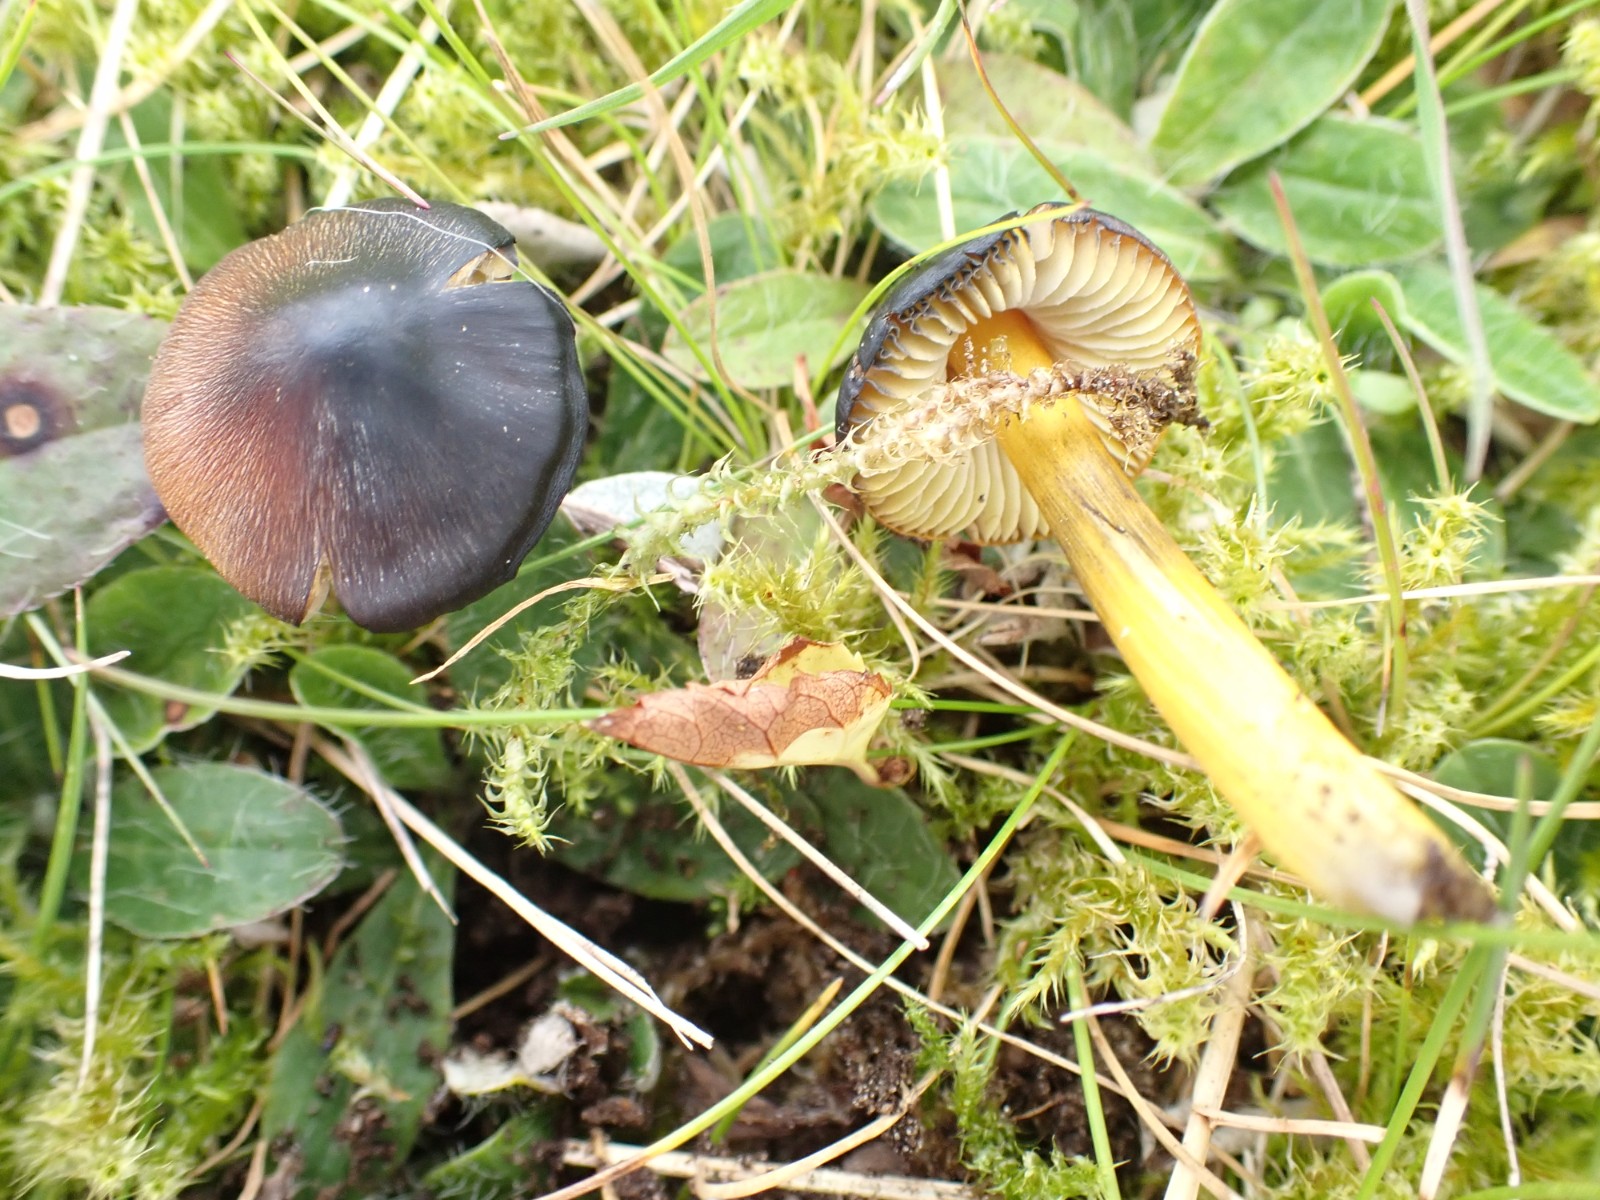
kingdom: Fungi
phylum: Basidiomycota
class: Agaricomycetes
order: Agaricales
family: Hygrophoraceae
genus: Hygrocybe
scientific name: Hygrocybe conica
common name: kegle-vokshat
